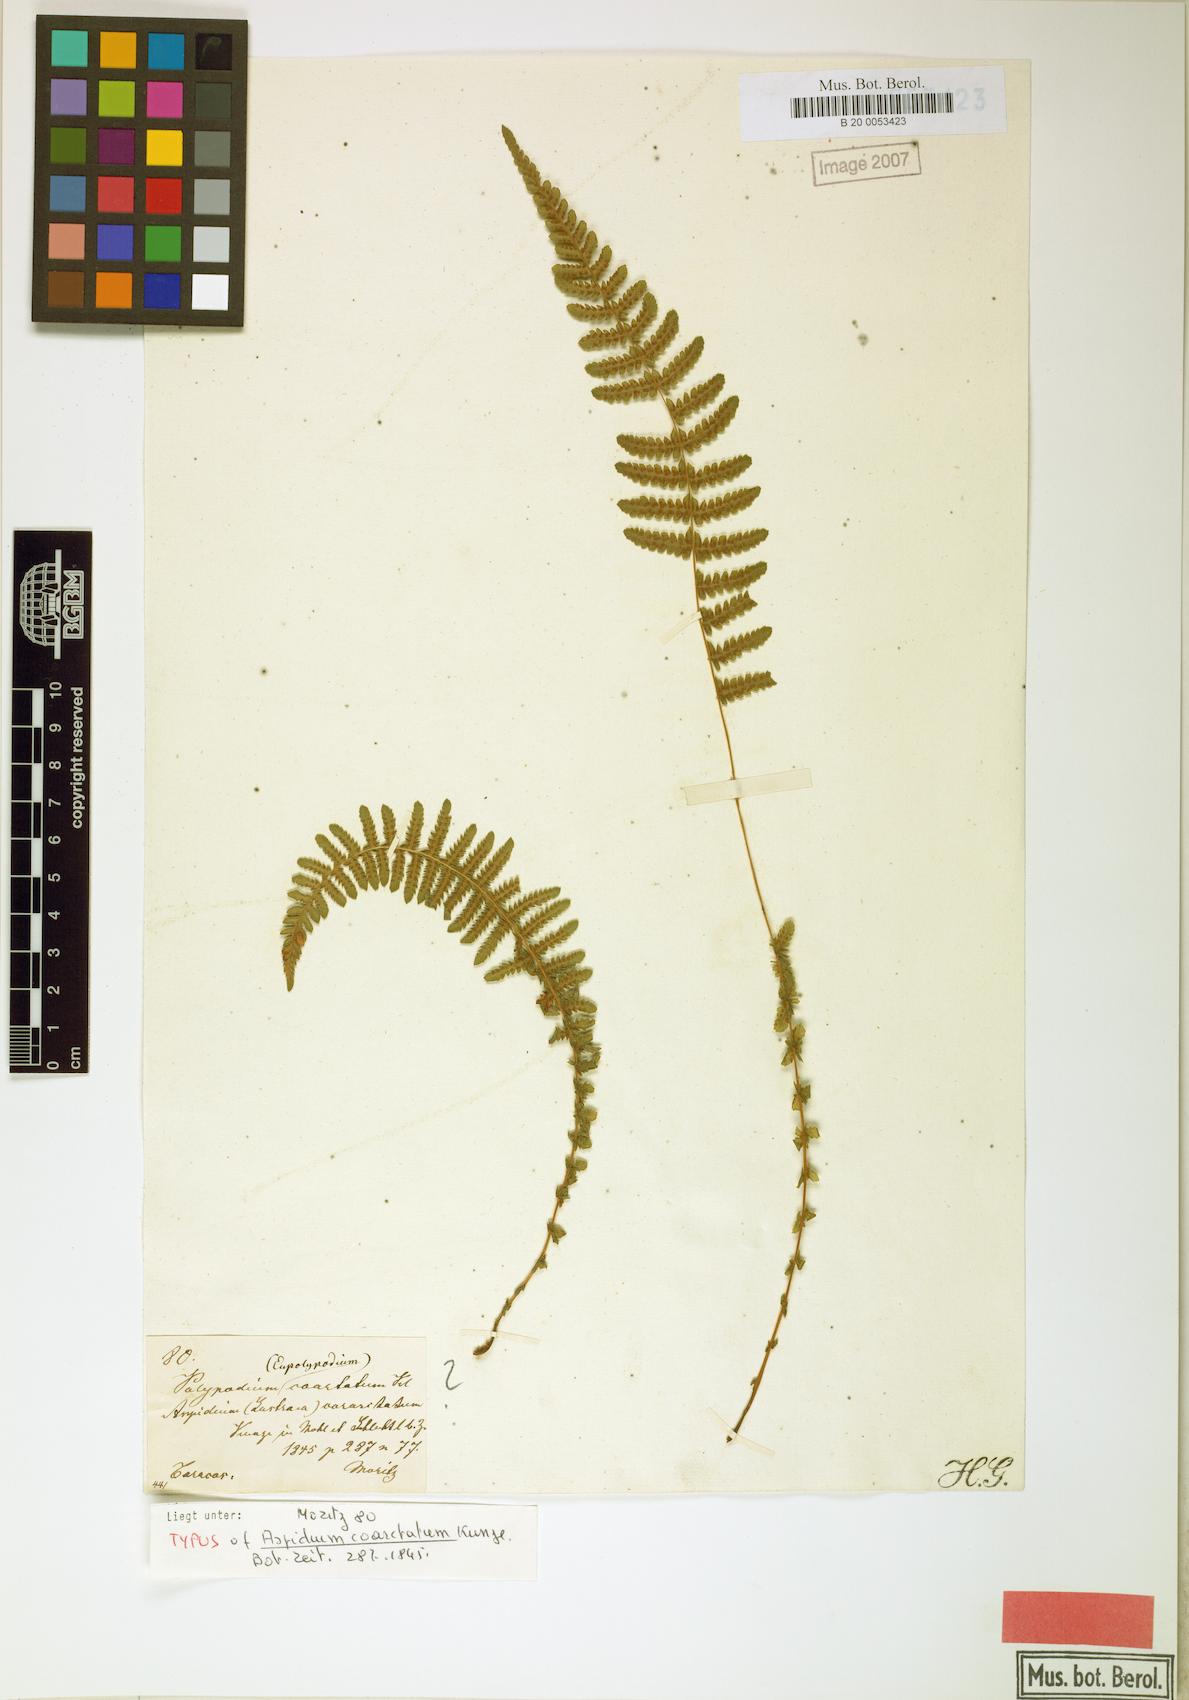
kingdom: Plantae
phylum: Tracheophyta
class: Polypodiopsida
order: Polypodiales
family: Thelypteridaceae
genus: Amauropelta
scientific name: Amauropelta opposita
